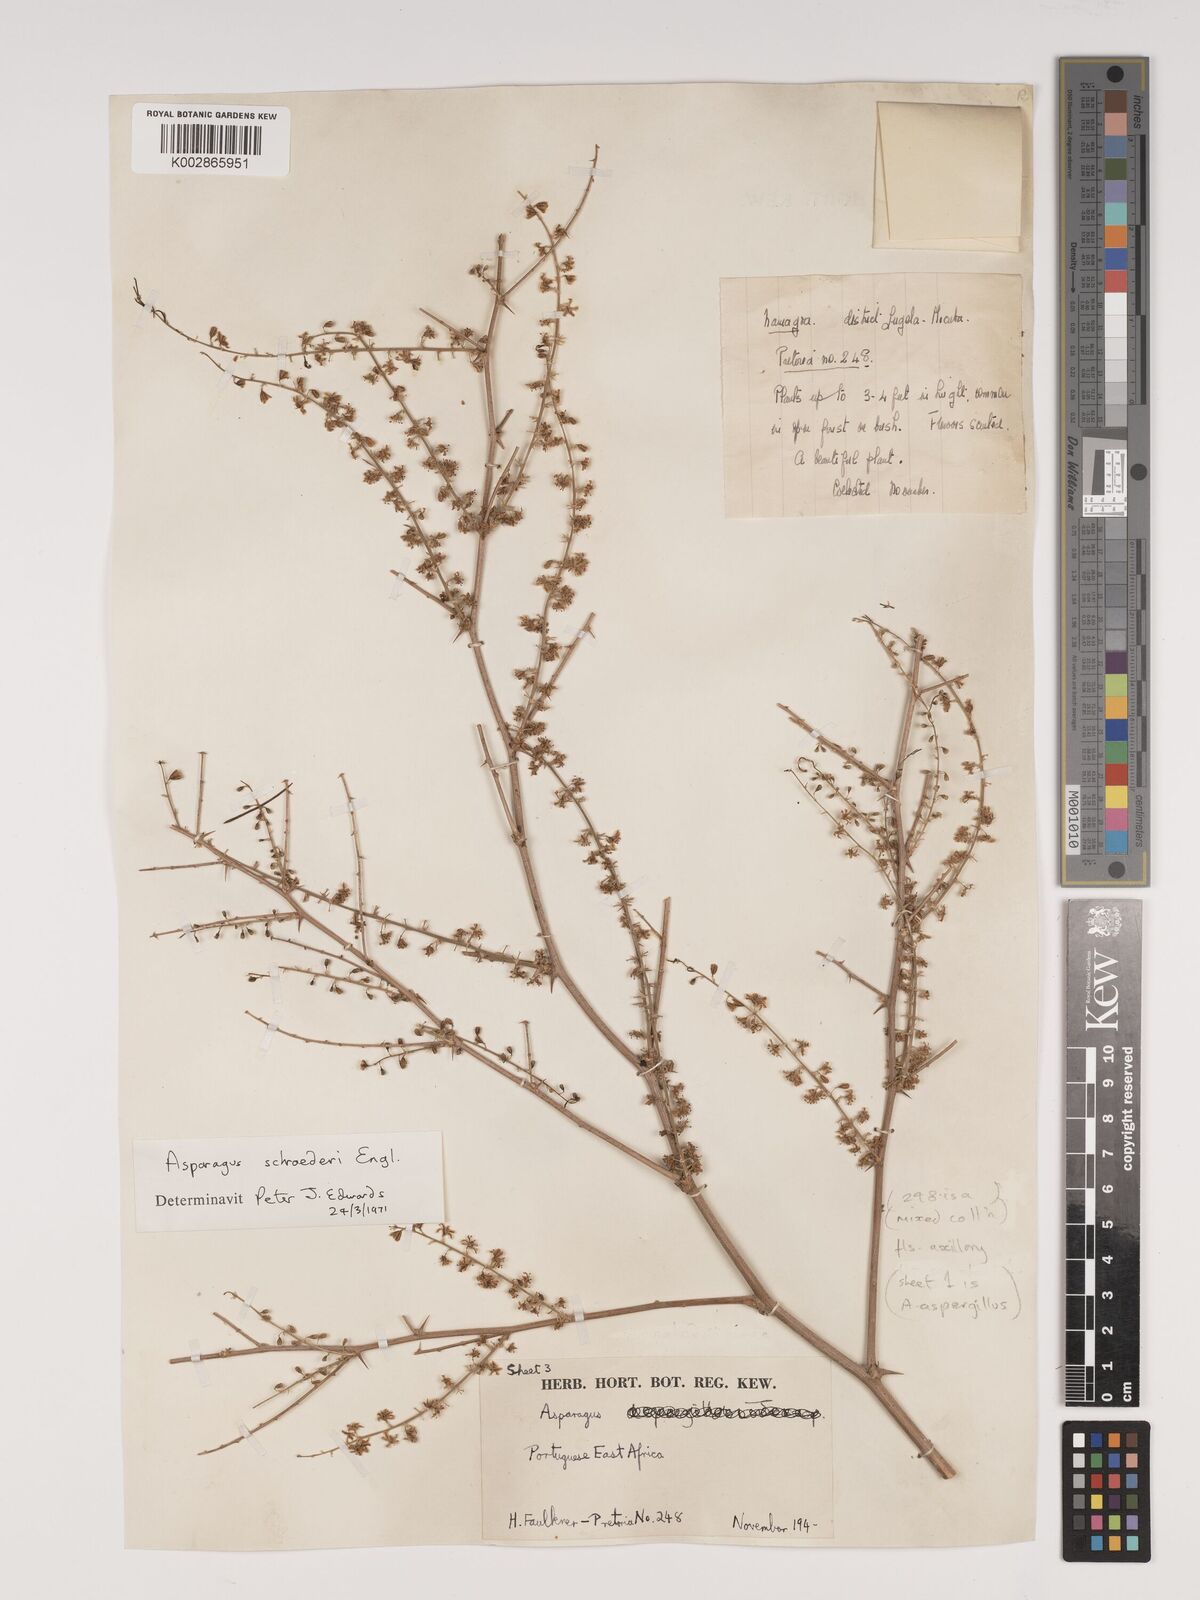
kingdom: Plantae
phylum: Tracheophyta
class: Liliopsida
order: Asparagales
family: Asparagaceae
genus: Asparagus
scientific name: Asparagus schroederi
